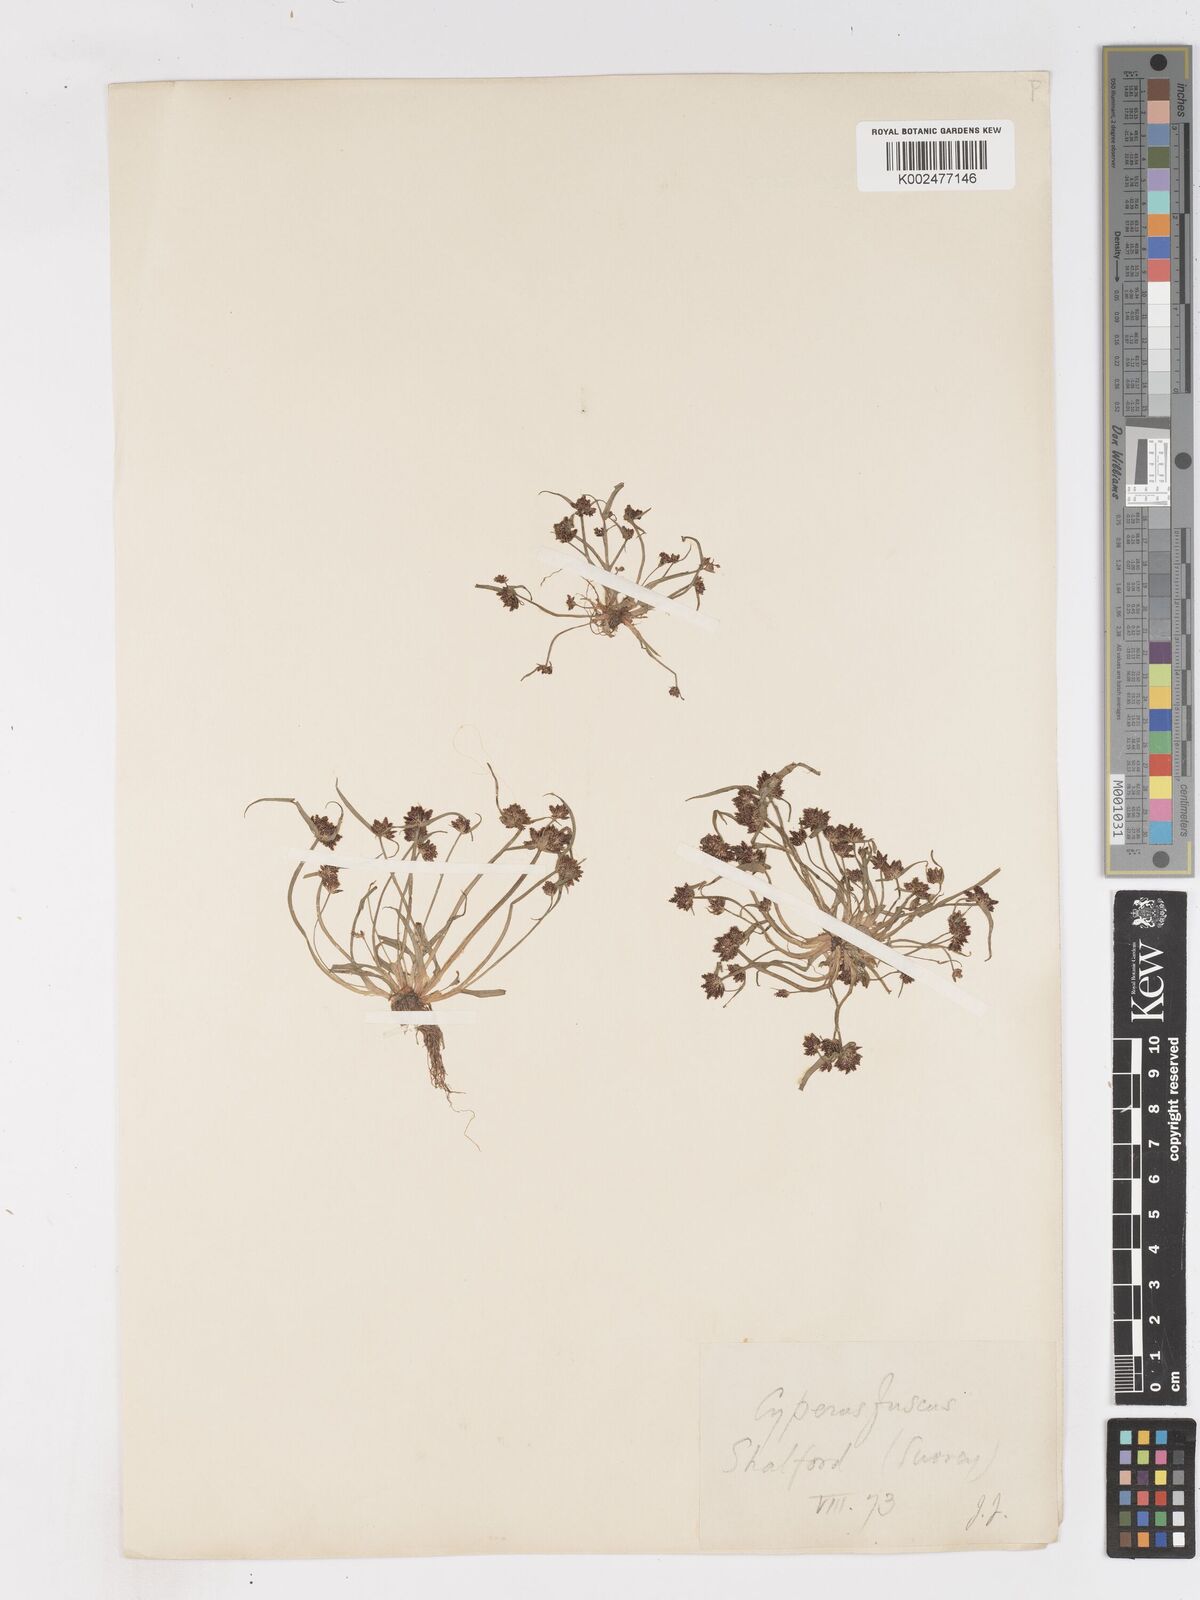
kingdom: Plantae
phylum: Tracheophyta
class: Liliopsida
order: Poales
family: Cyperaceae
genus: Cyperus
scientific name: Cyperus fuscus
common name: Brown galingale
